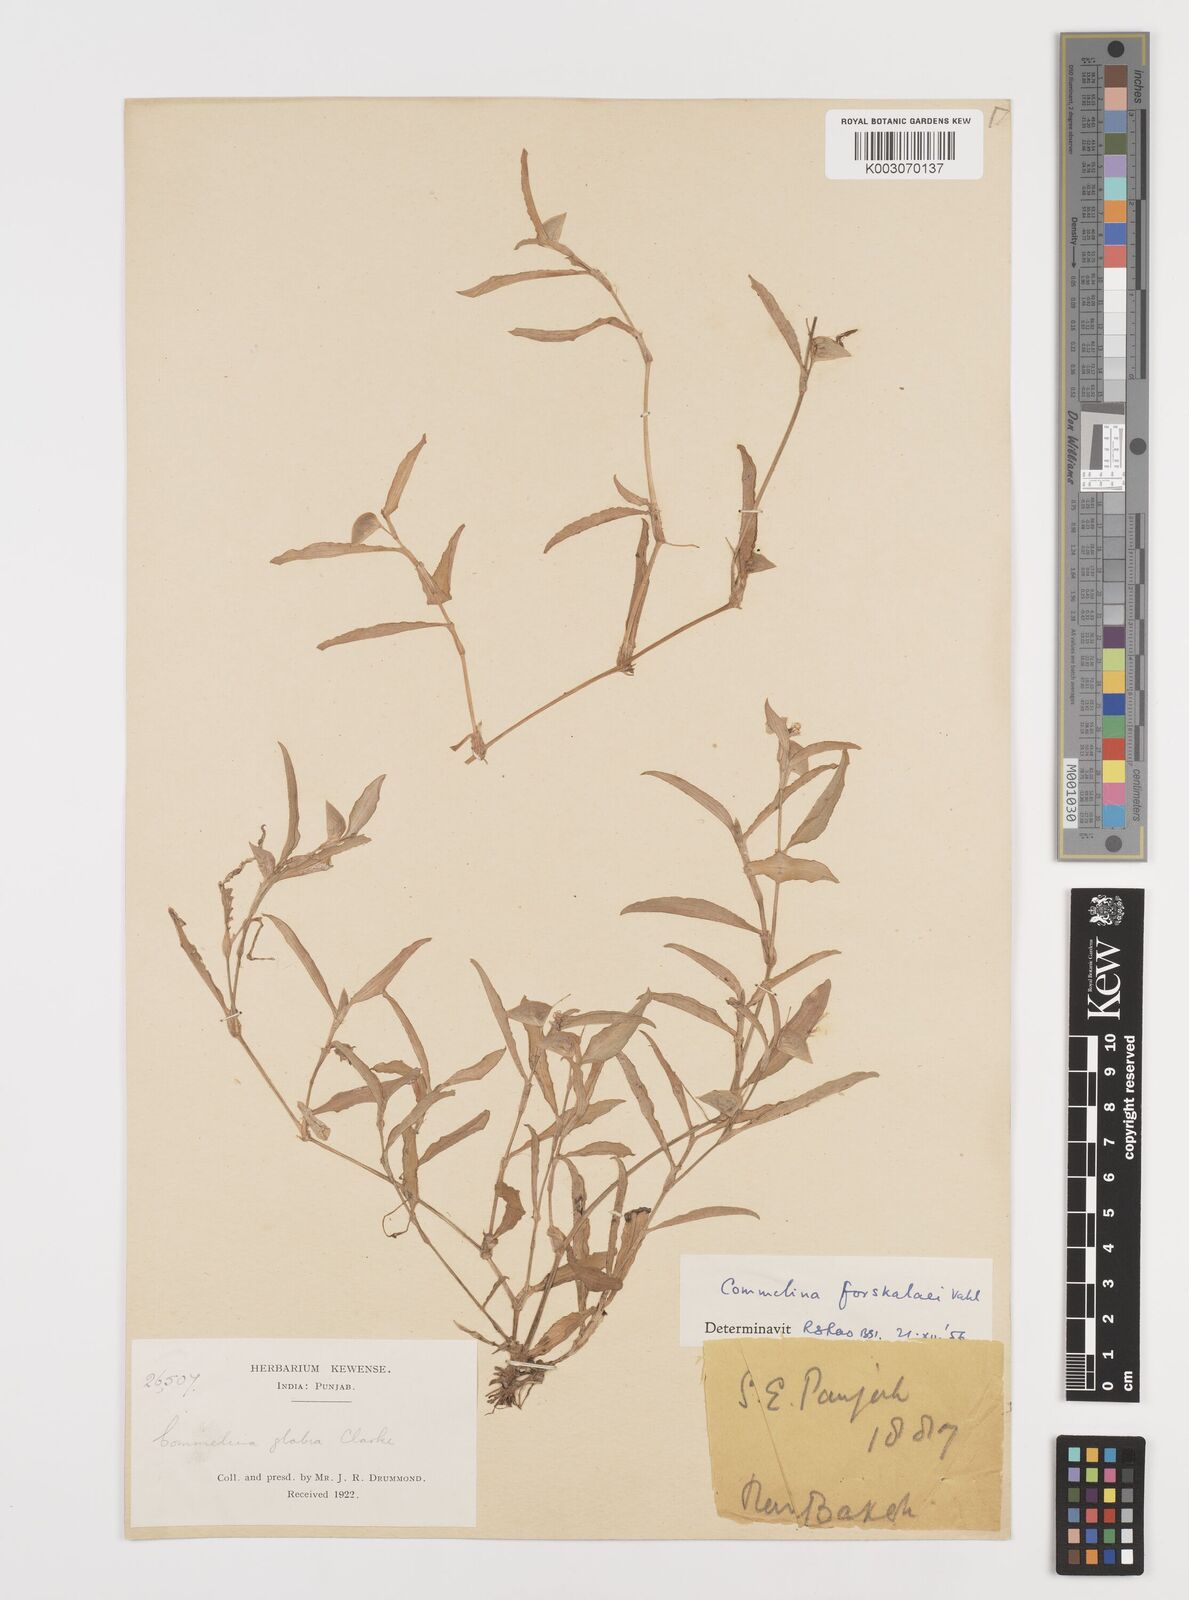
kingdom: Plantae
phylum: Tracheophyta
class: Liliopsida
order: Commelinales
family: Commelinaceae
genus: Commelina
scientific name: Commelina forskaolii
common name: Rat's ear
